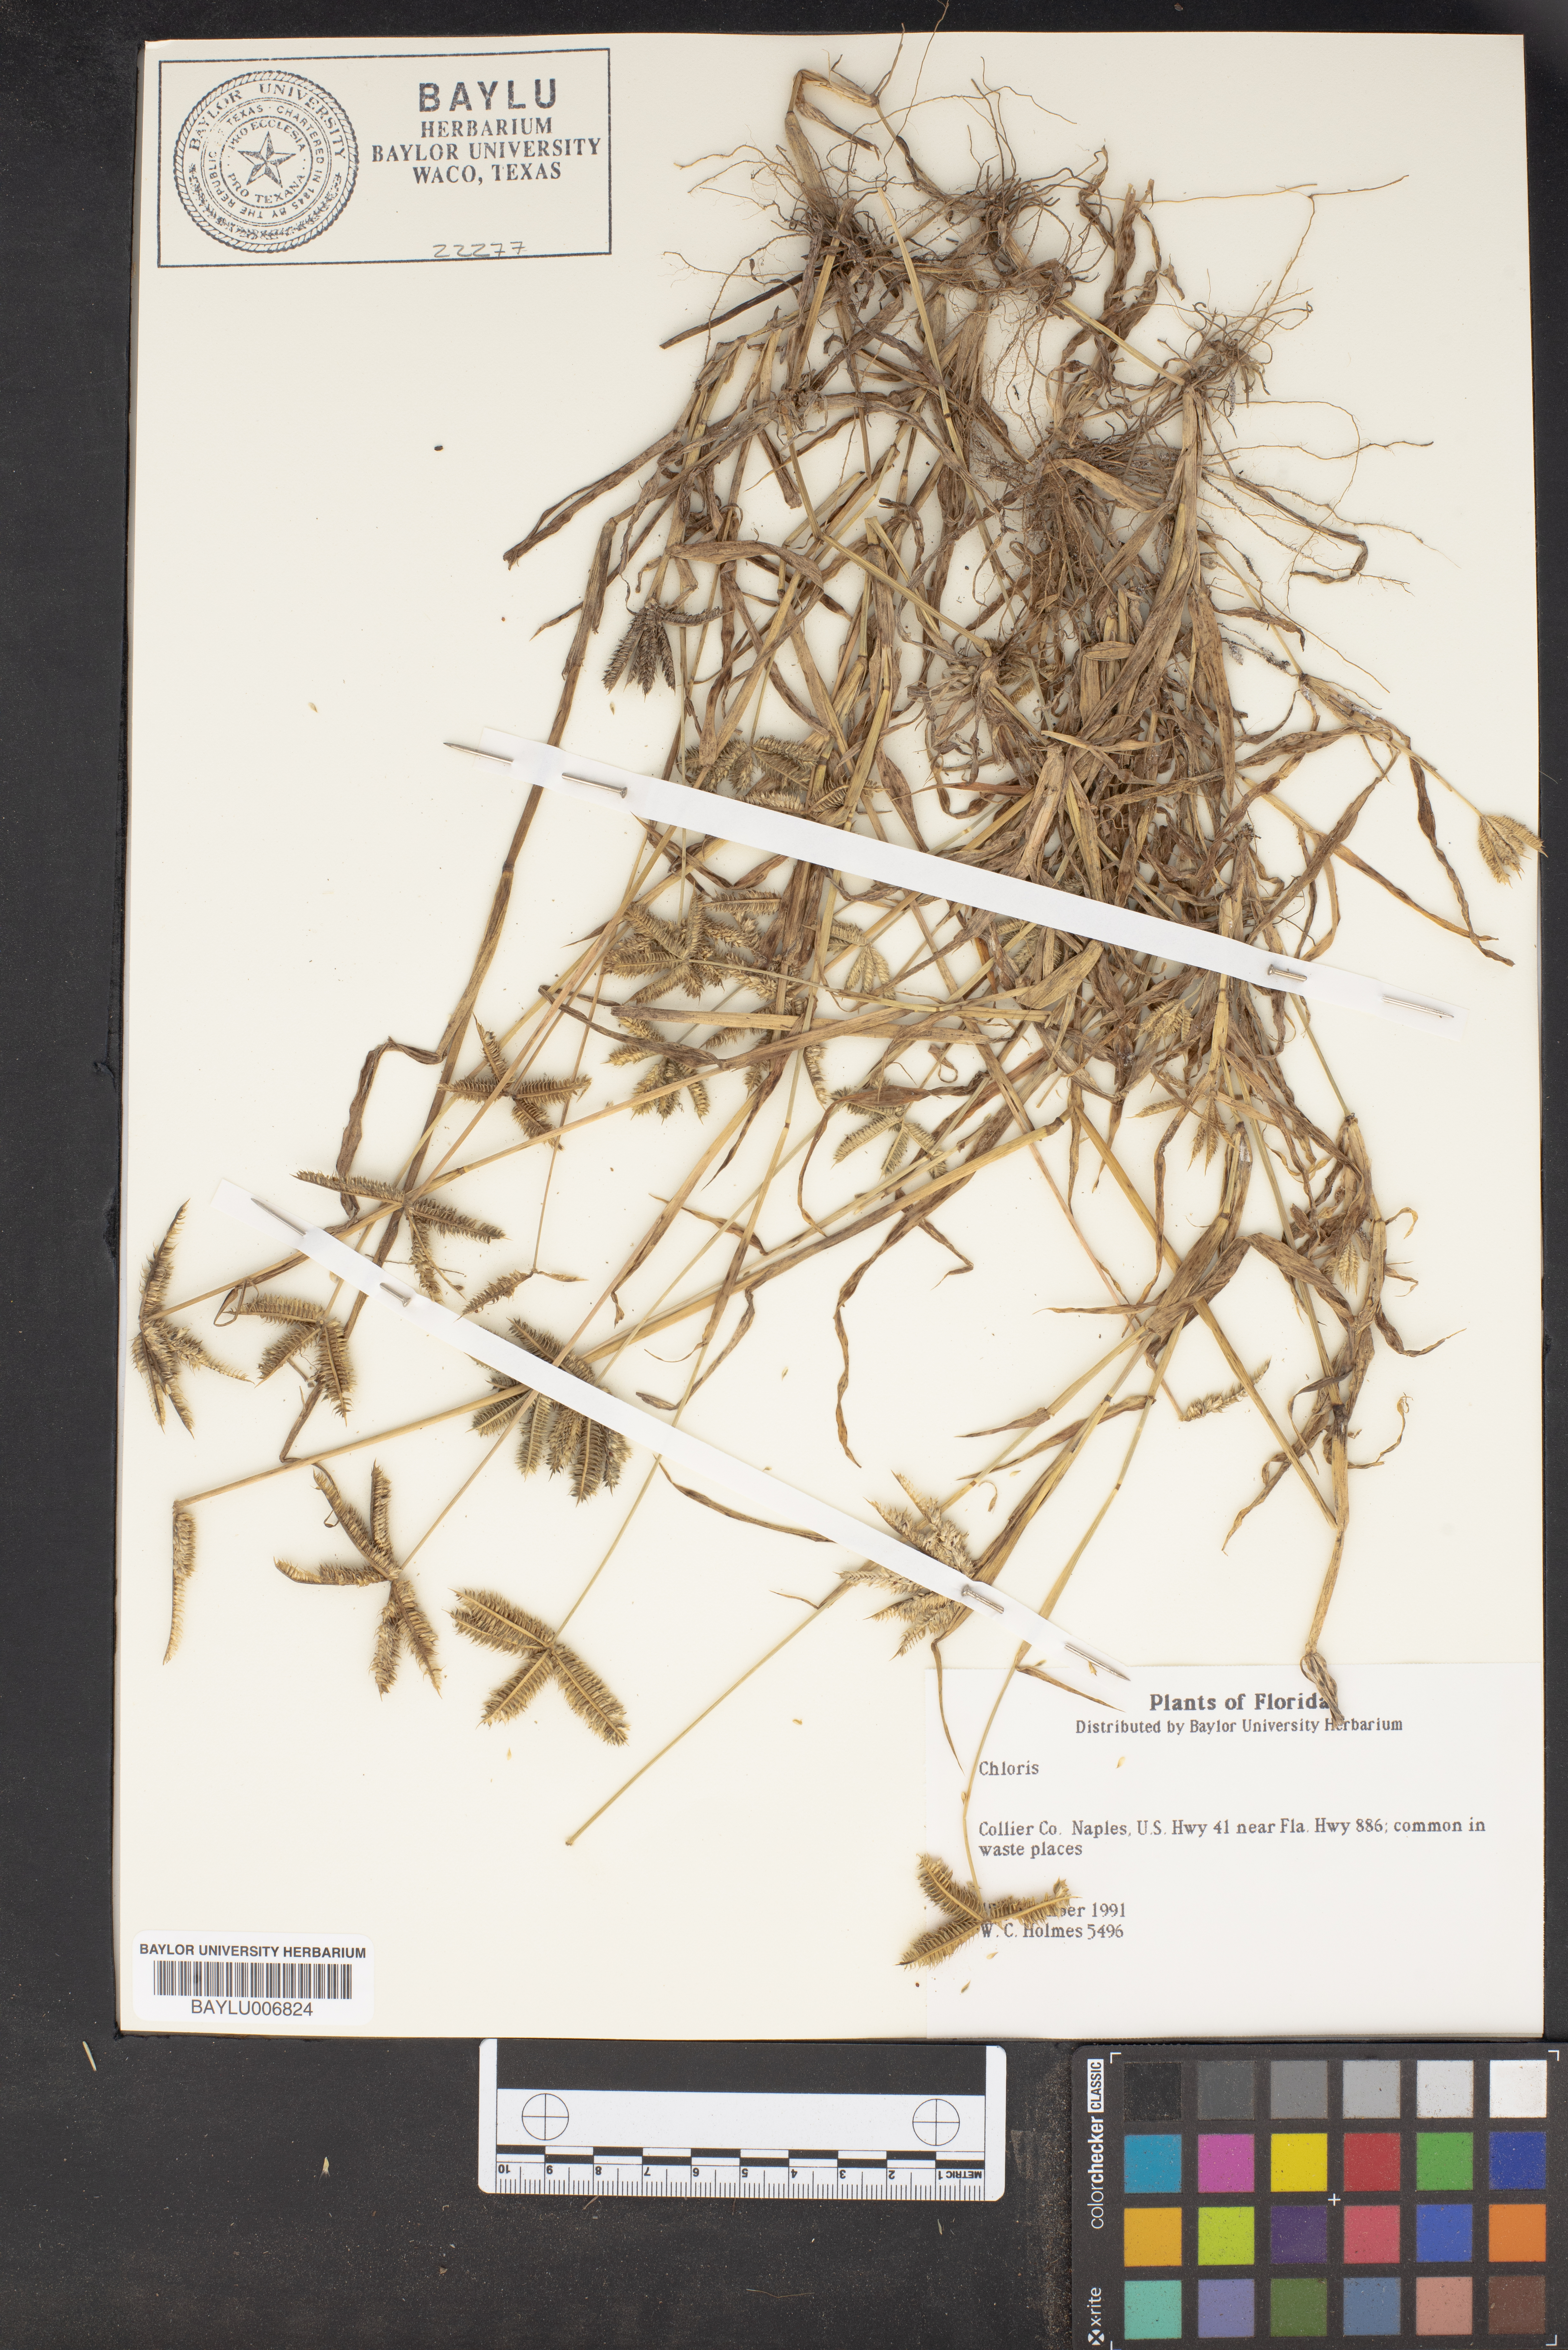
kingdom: Plantae
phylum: Tracheophyta
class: Liliopsida
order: Poales
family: Poaceae
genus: Chloris
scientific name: Chloris gayana
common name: Rhodes grass
